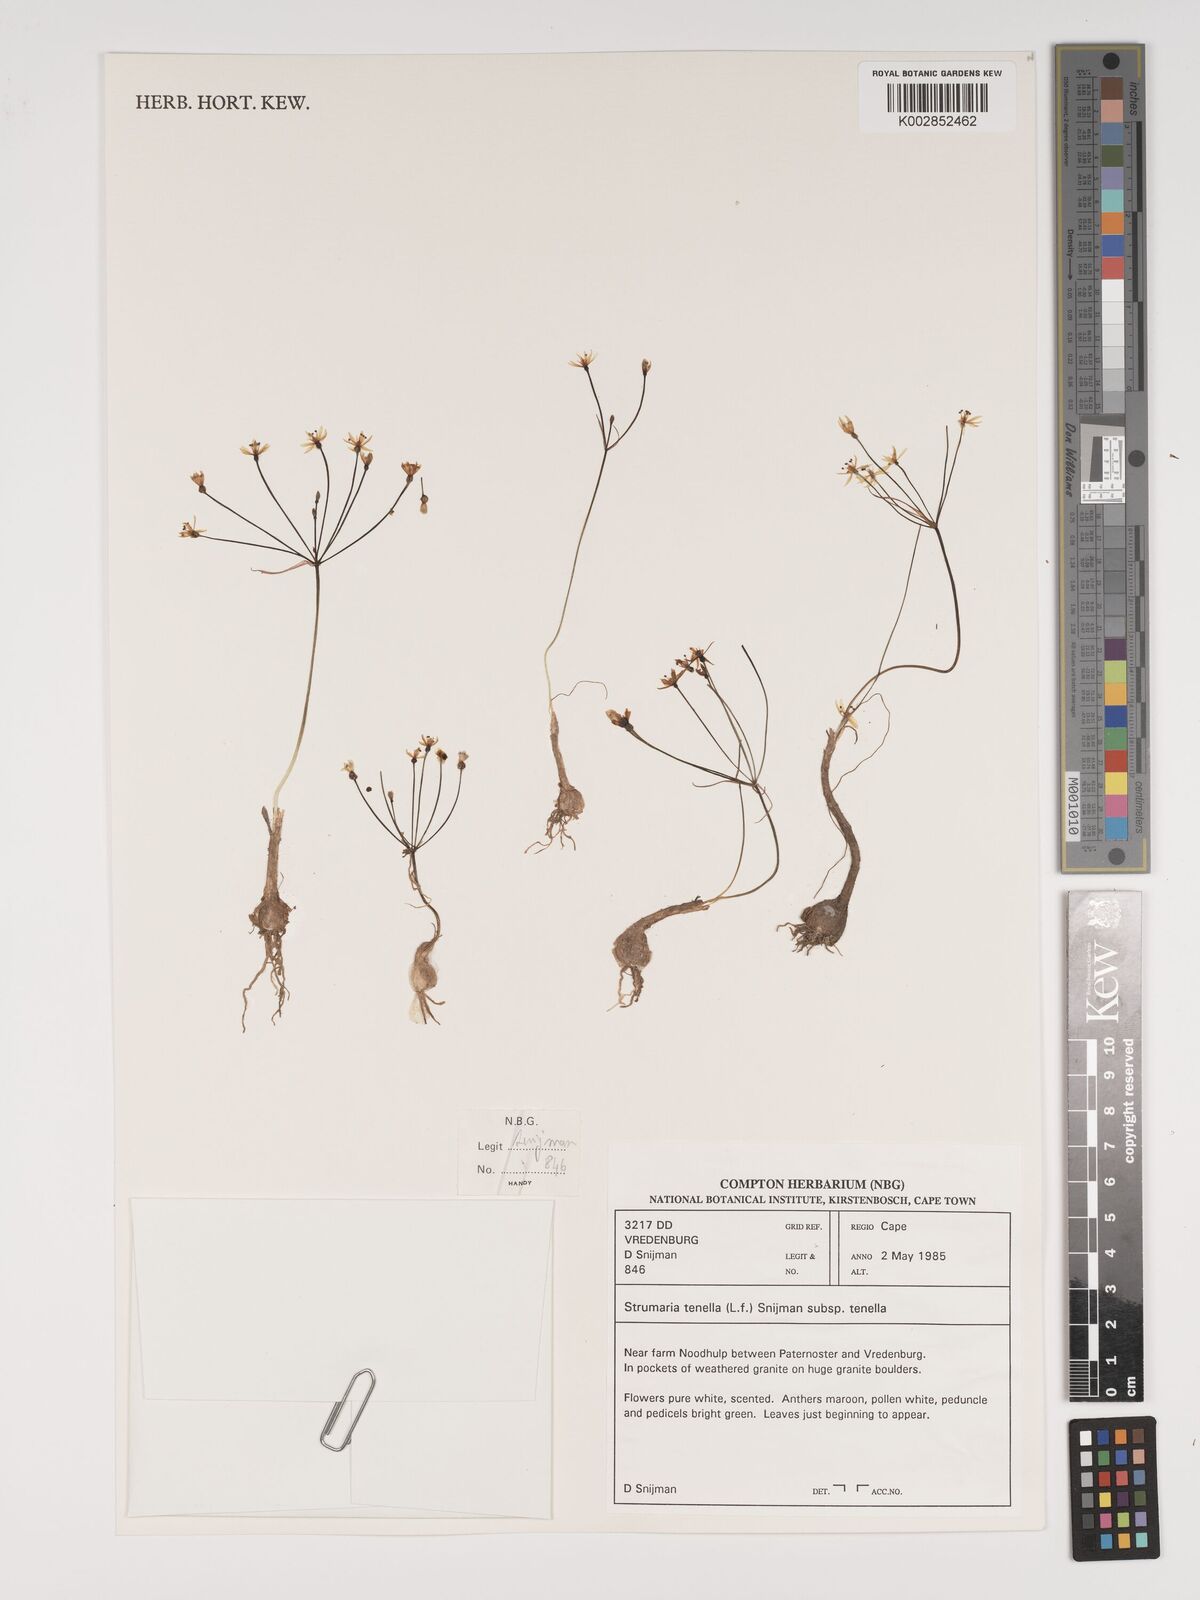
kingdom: Plantae
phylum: Tracheophyta
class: Liliopsida
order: Asparagales
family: Amaryllidaceae
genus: Strumaria
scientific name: Strumaria tenella
